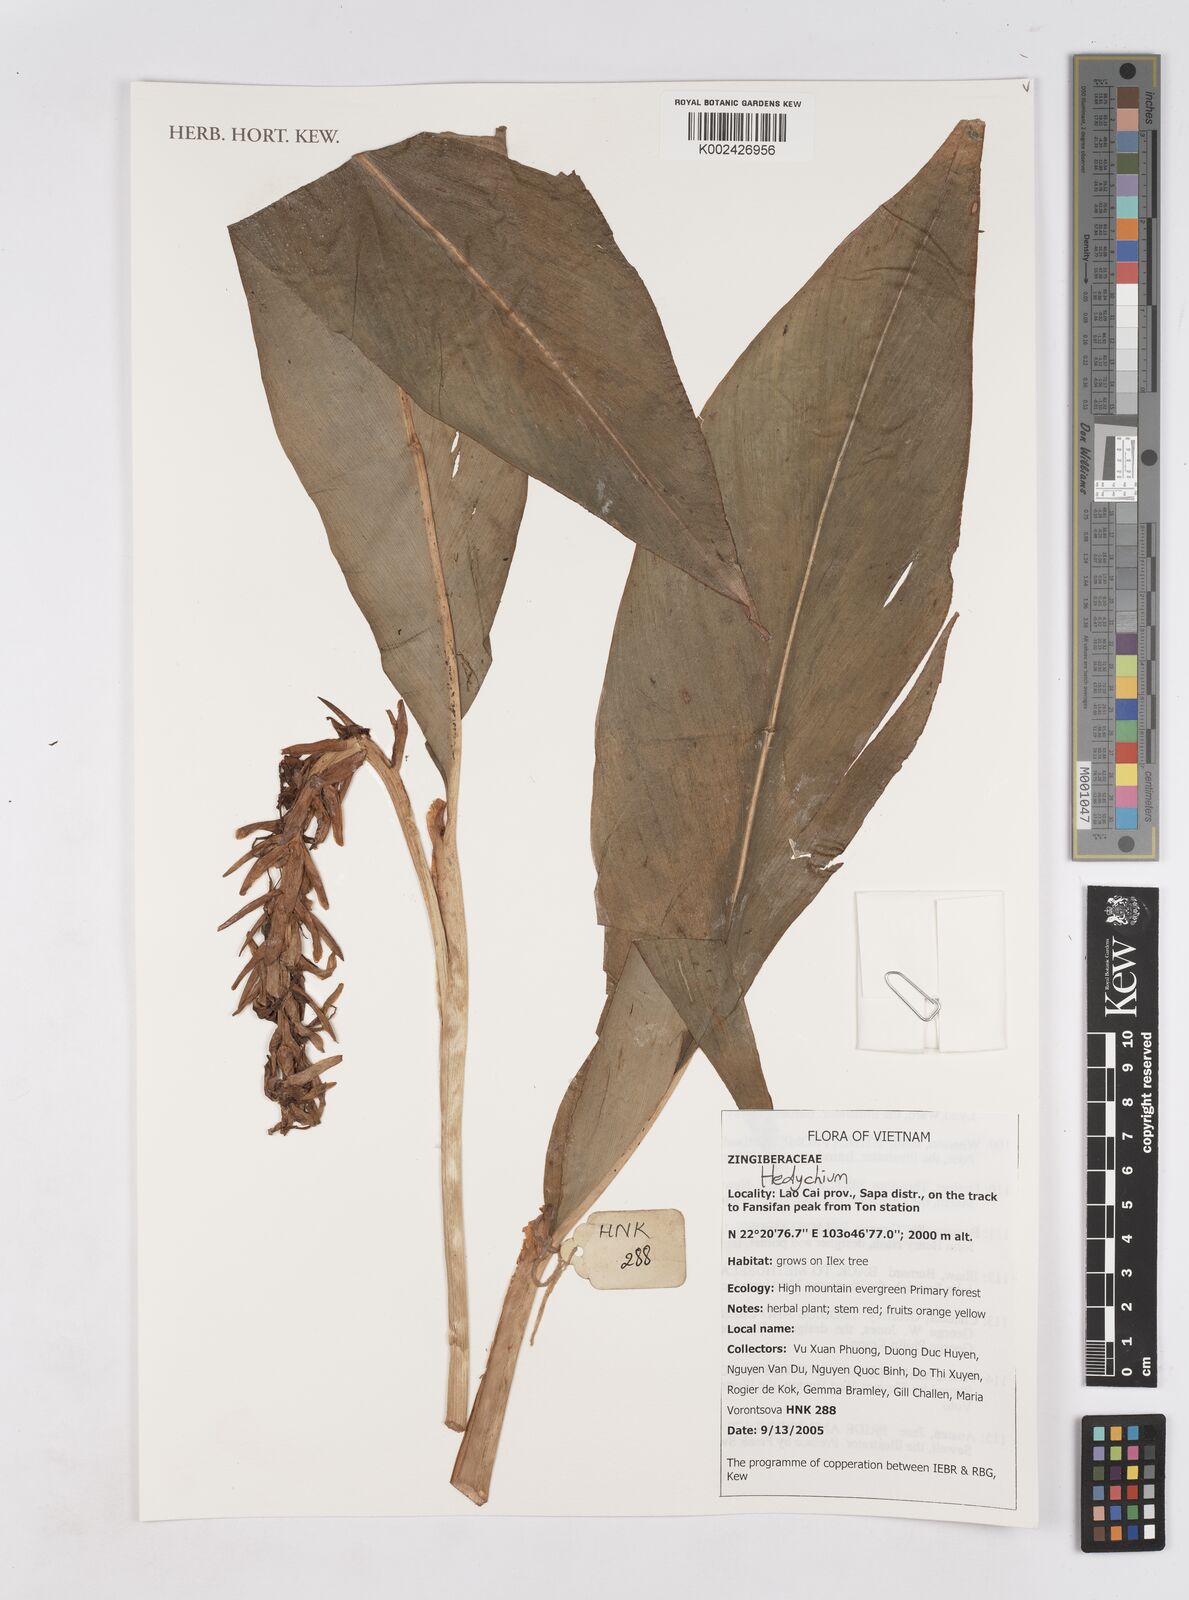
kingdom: Plantae
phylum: Tracheophyta
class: Liliopsida
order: Zingiberales
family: Zingiberaceae
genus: Hedychium
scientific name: Hedychium
